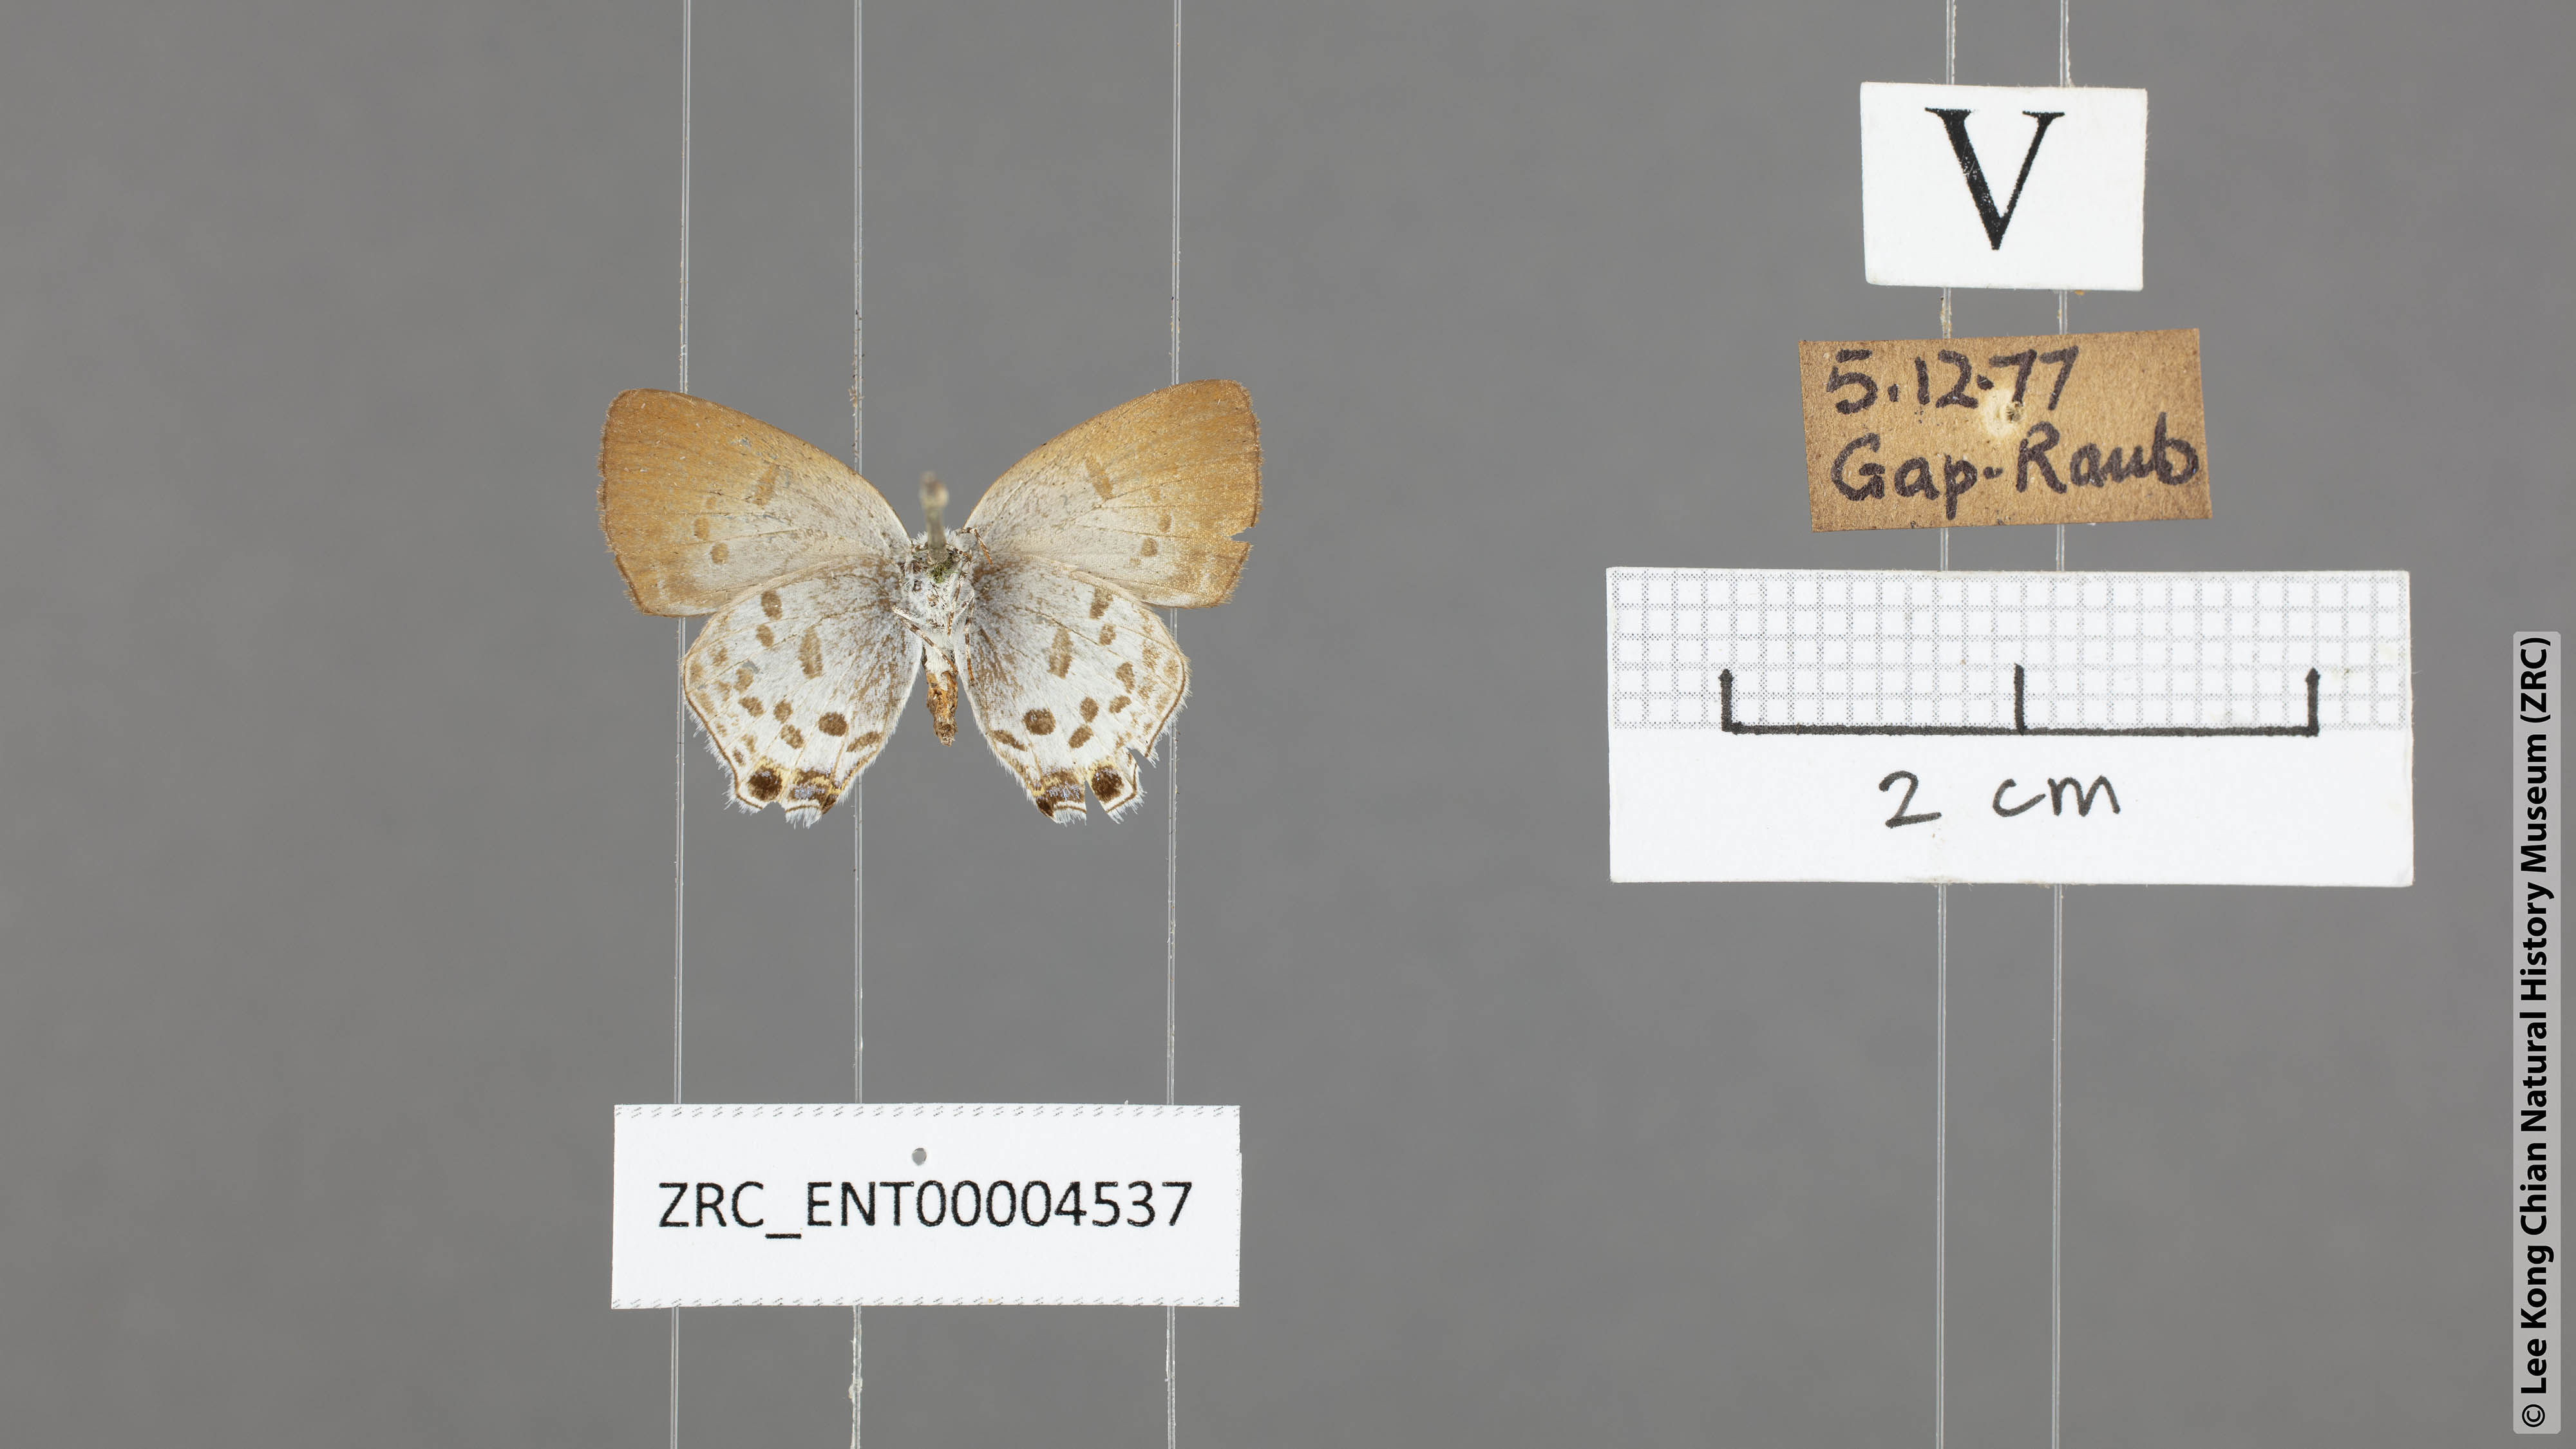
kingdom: Animalia
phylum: Arthropoda
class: Insecta
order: Lepidoptera
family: Lycaenidae
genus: Sinthusa
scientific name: Sinthusa malika
